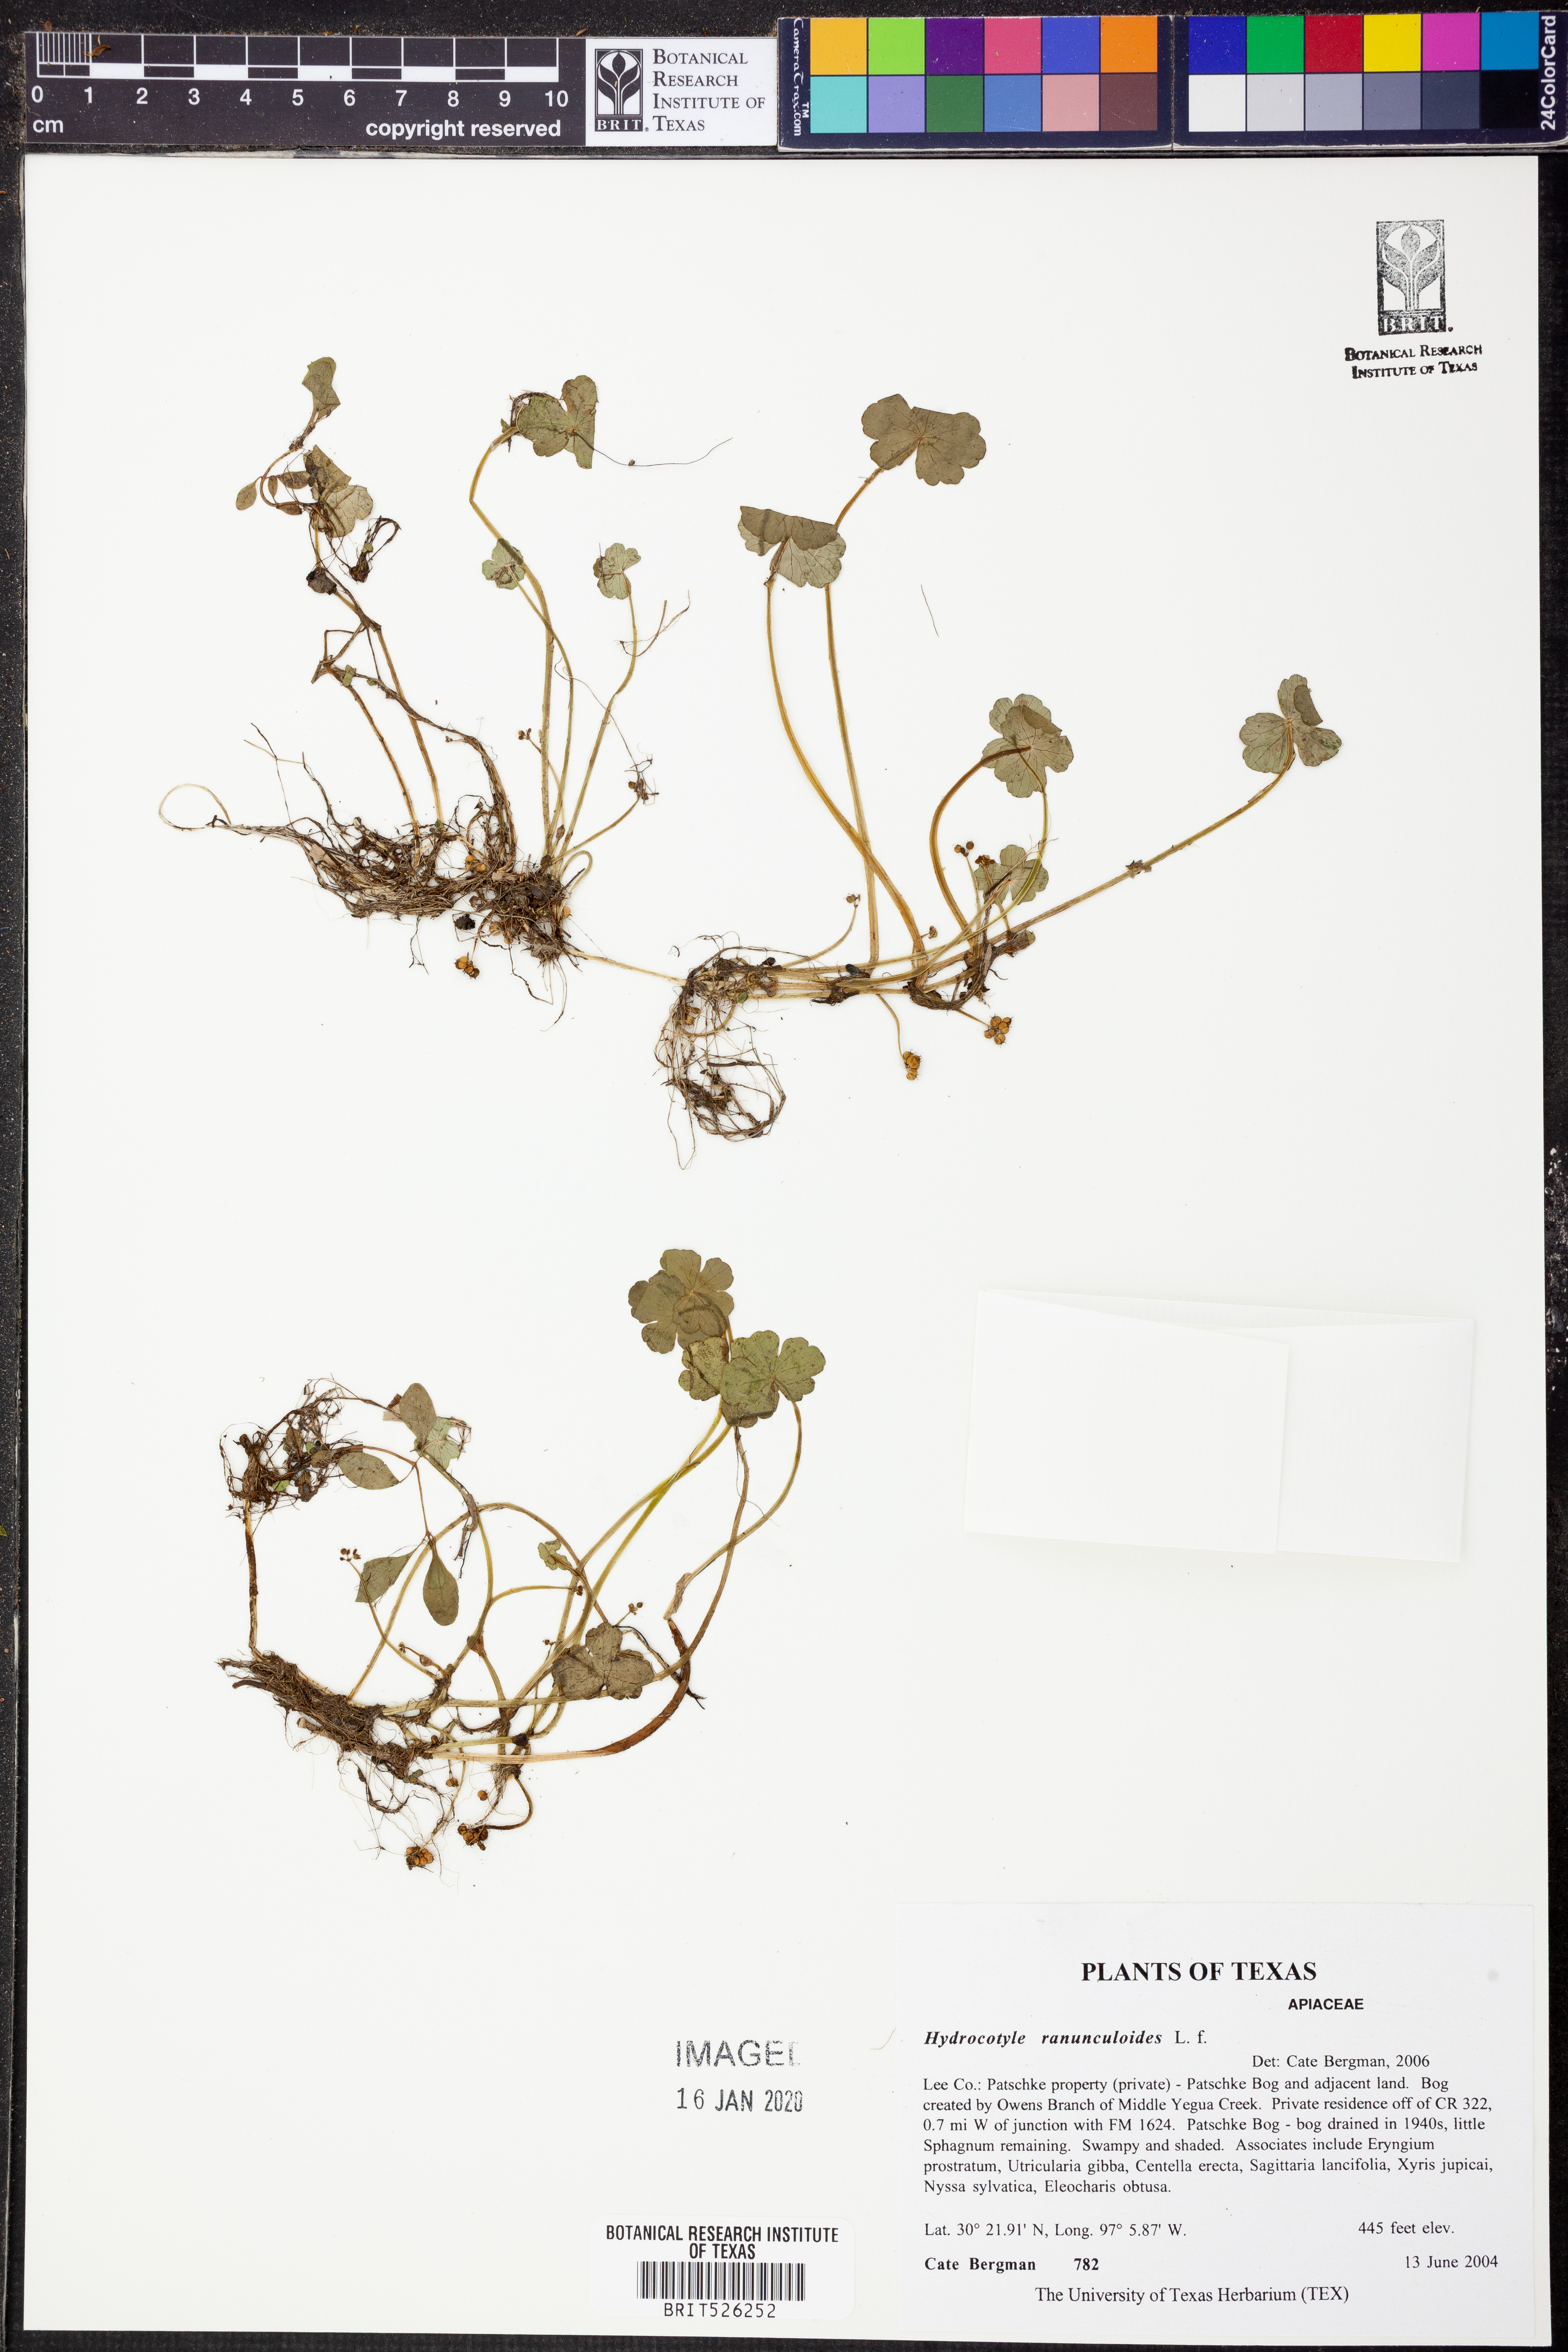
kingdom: Plantae
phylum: Tracheophyta
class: Magnoliopsida
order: Apiales
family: Araliaceae
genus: Hydrocotyle
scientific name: Hydrocotyle ranunculoides
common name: Floating pennywort
